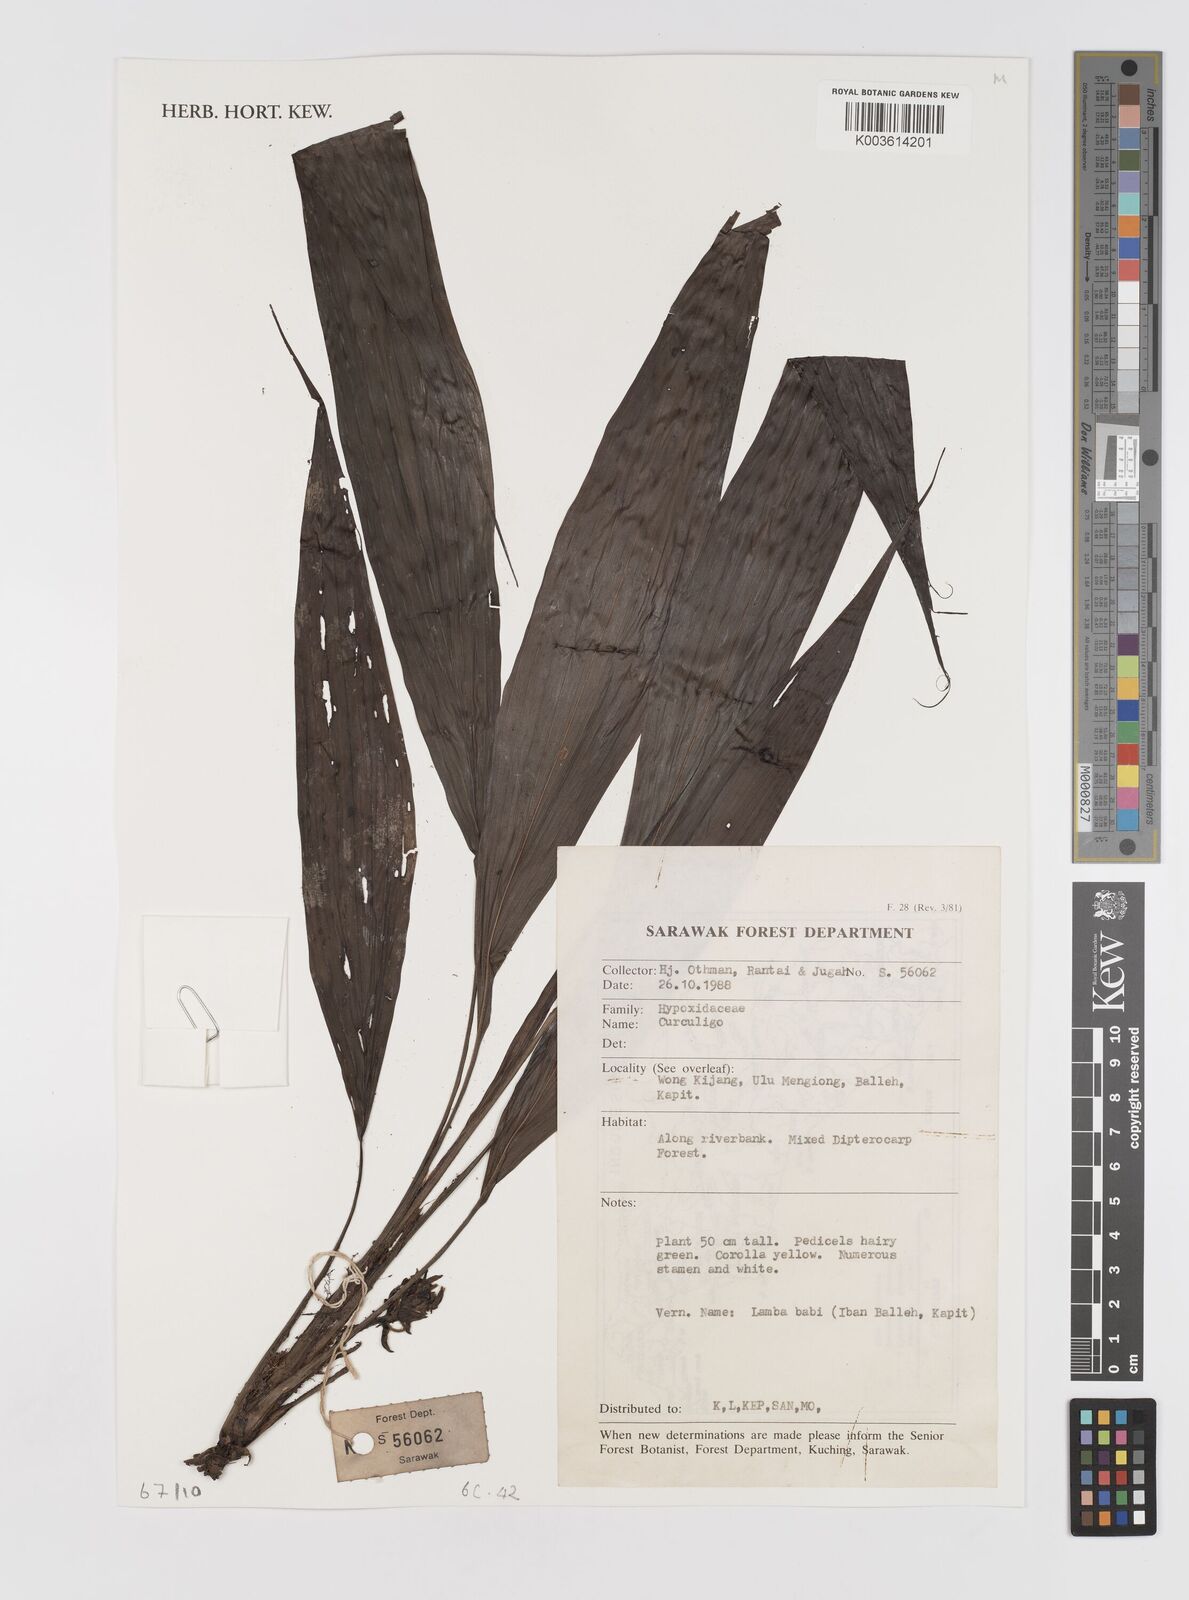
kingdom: Plantae
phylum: Tracheophyta
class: Liliopsida
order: Asparagales
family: Hypoxidaceae
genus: Curculigo
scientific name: Curculigo
